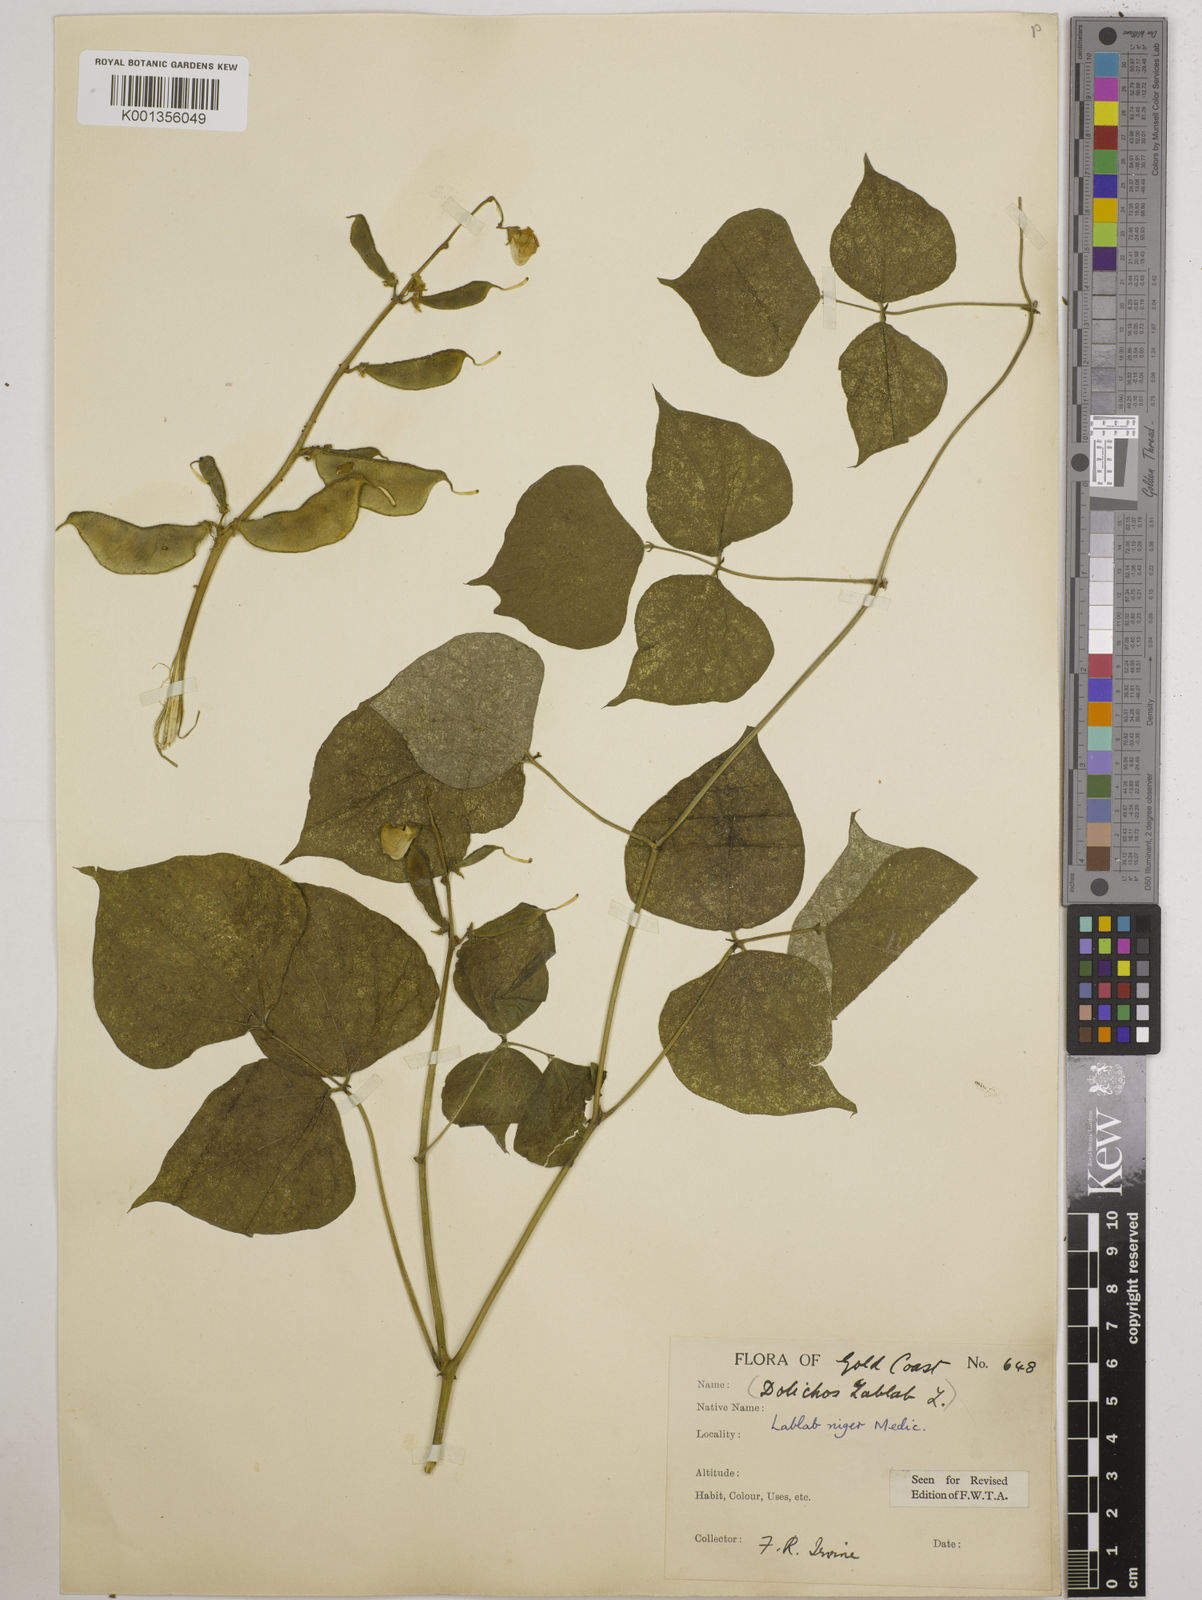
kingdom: Plantae
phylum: Tracheophyta
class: Magnoliopsida
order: Fabales
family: Fabaceae
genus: Lablab
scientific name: Lablab purpureus
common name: Lablab-bean
